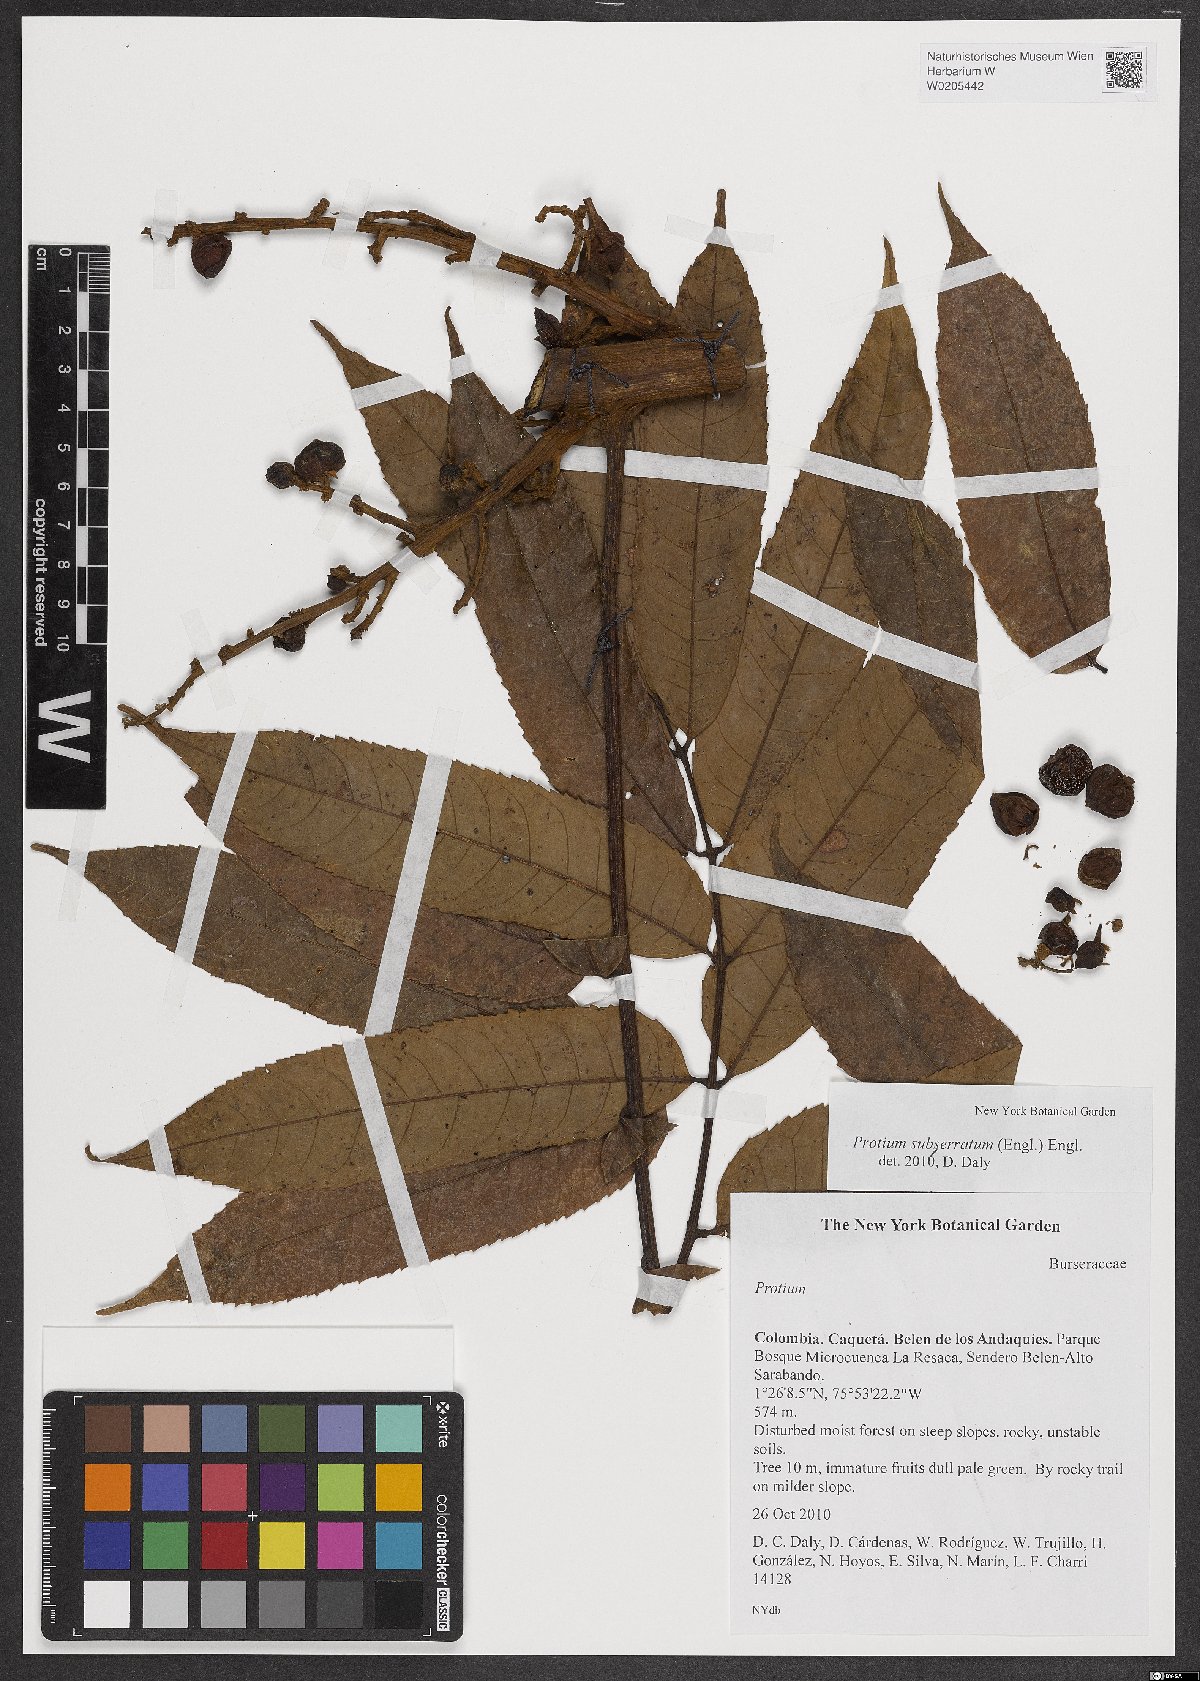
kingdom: Plantae
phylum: Tracheophyta
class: Magnoliopsida
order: Sapindales
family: Burseraceae
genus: Protium
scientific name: Protium subserratum
